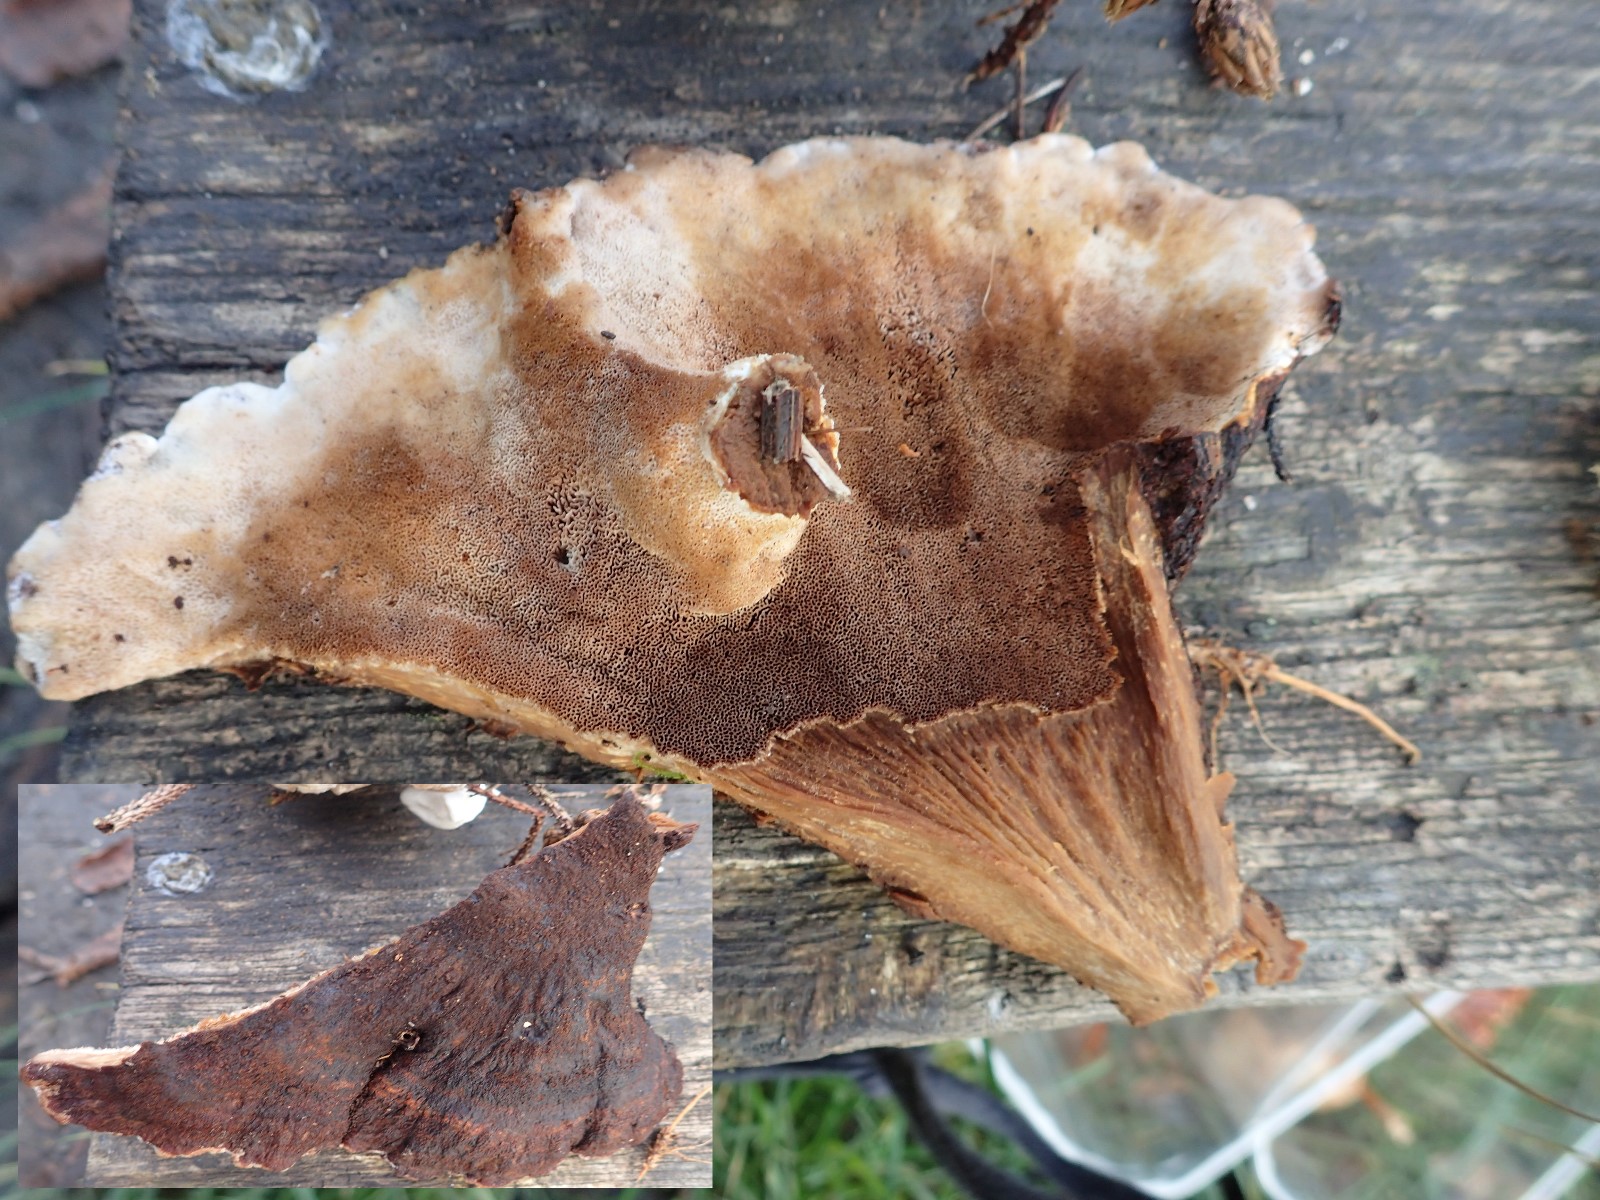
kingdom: Fungi
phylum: Basidiomycota
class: Agaricomycetes
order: Polyporales
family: Ischnodermataceae
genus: Ischnoderma
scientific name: Ischnoderma benzoinum
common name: gran-tjæreporesvamp
